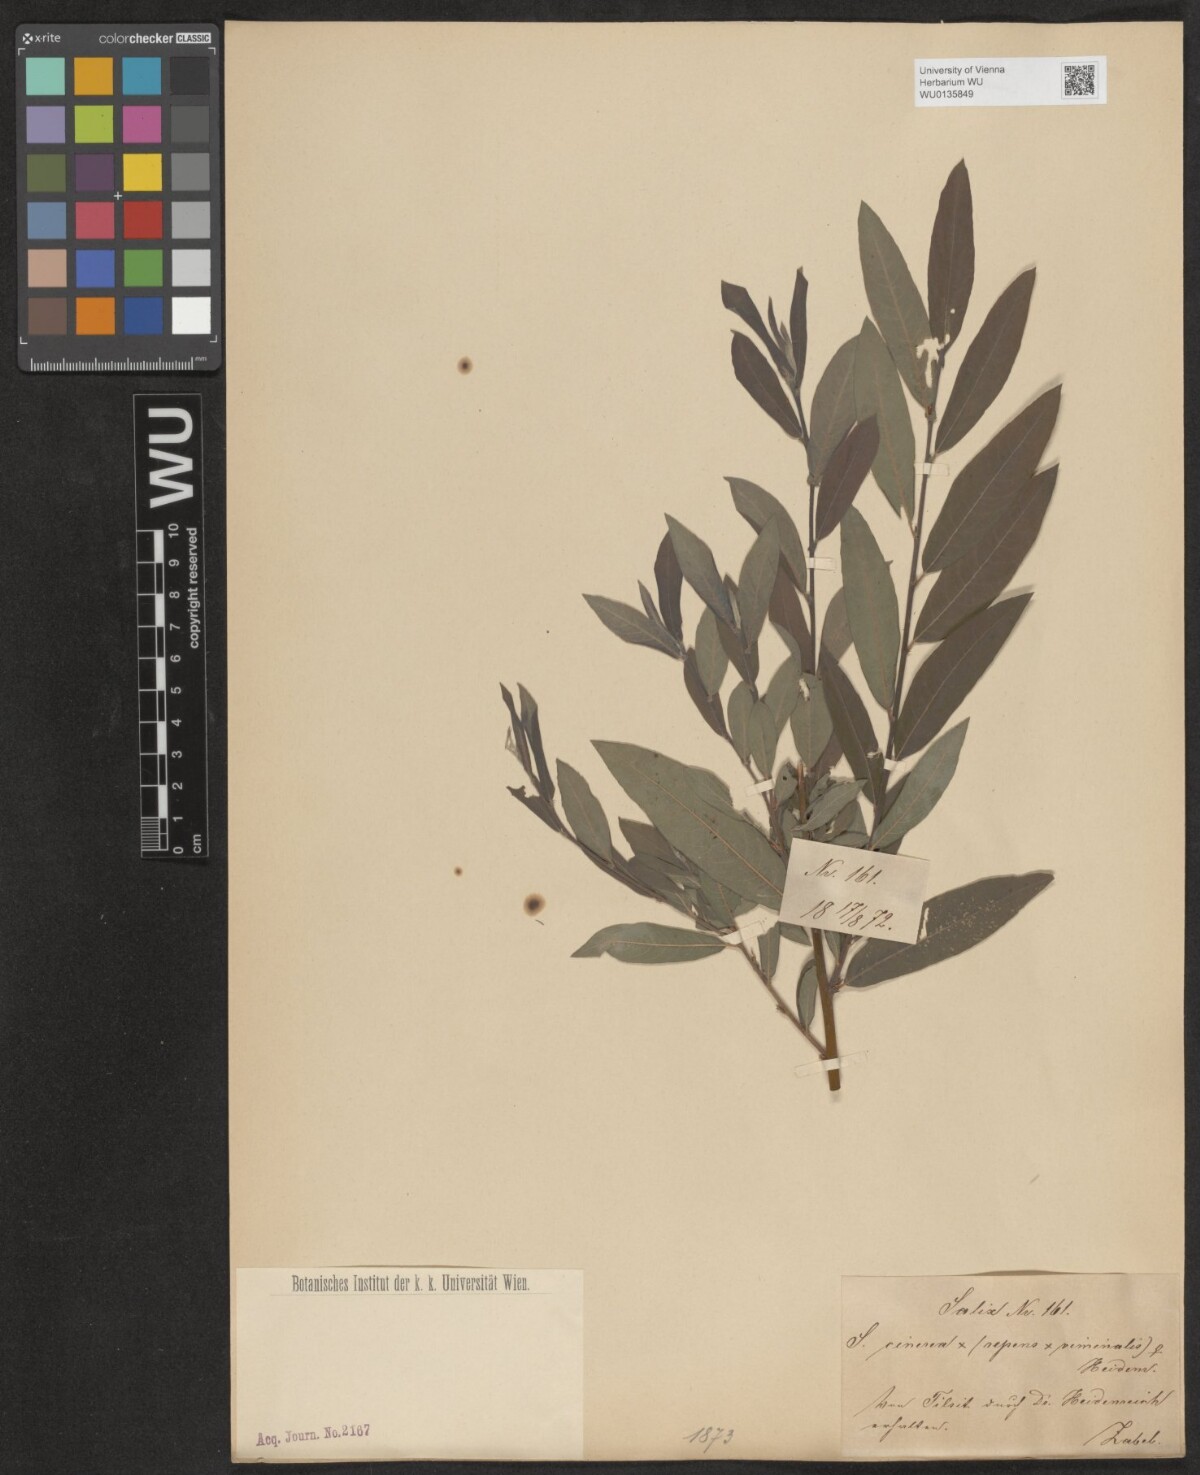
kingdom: Plantae
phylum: Tracheophyta
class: Magnoliopsida
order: Malpighiales
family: Salicaceae
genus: Salix
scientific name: Salix
